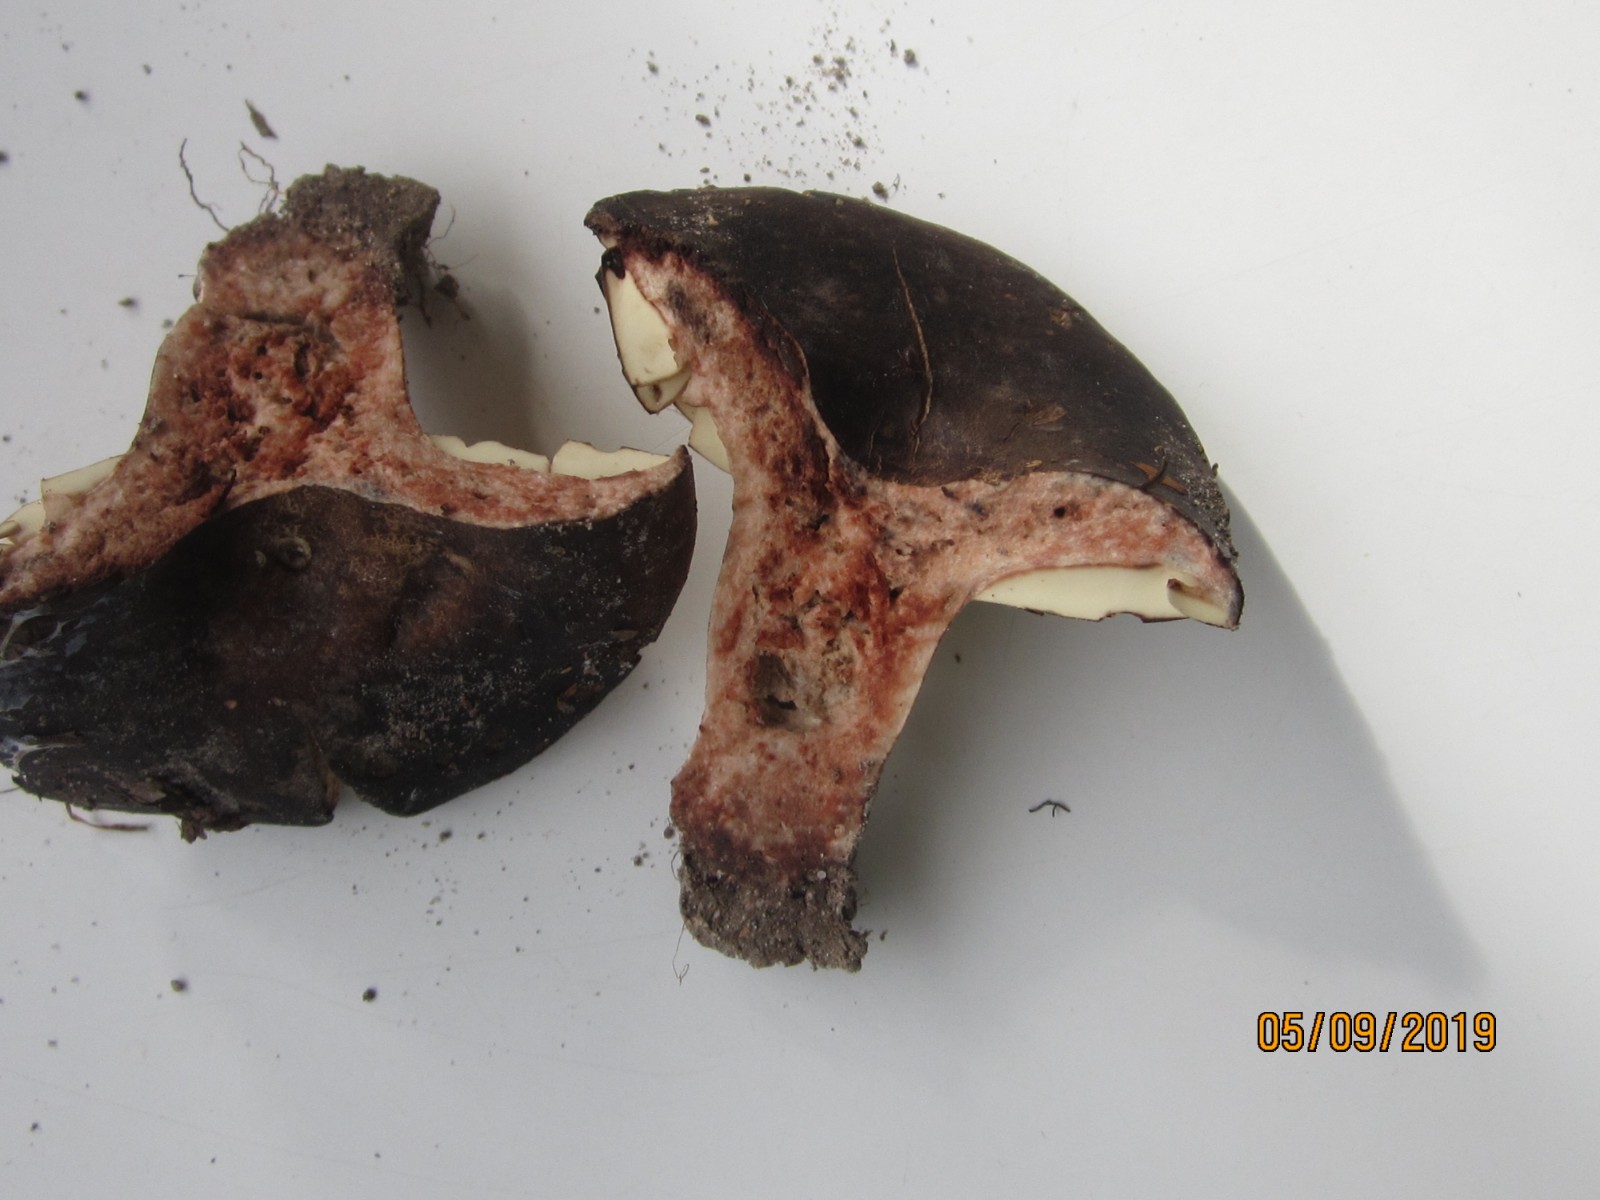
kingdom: Fungi
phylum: Basidiomycota
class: Agaricomycetes
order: Russulales
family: Russulaceae
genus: Russula
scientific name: Russula adusta
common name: sværtende skørhat
